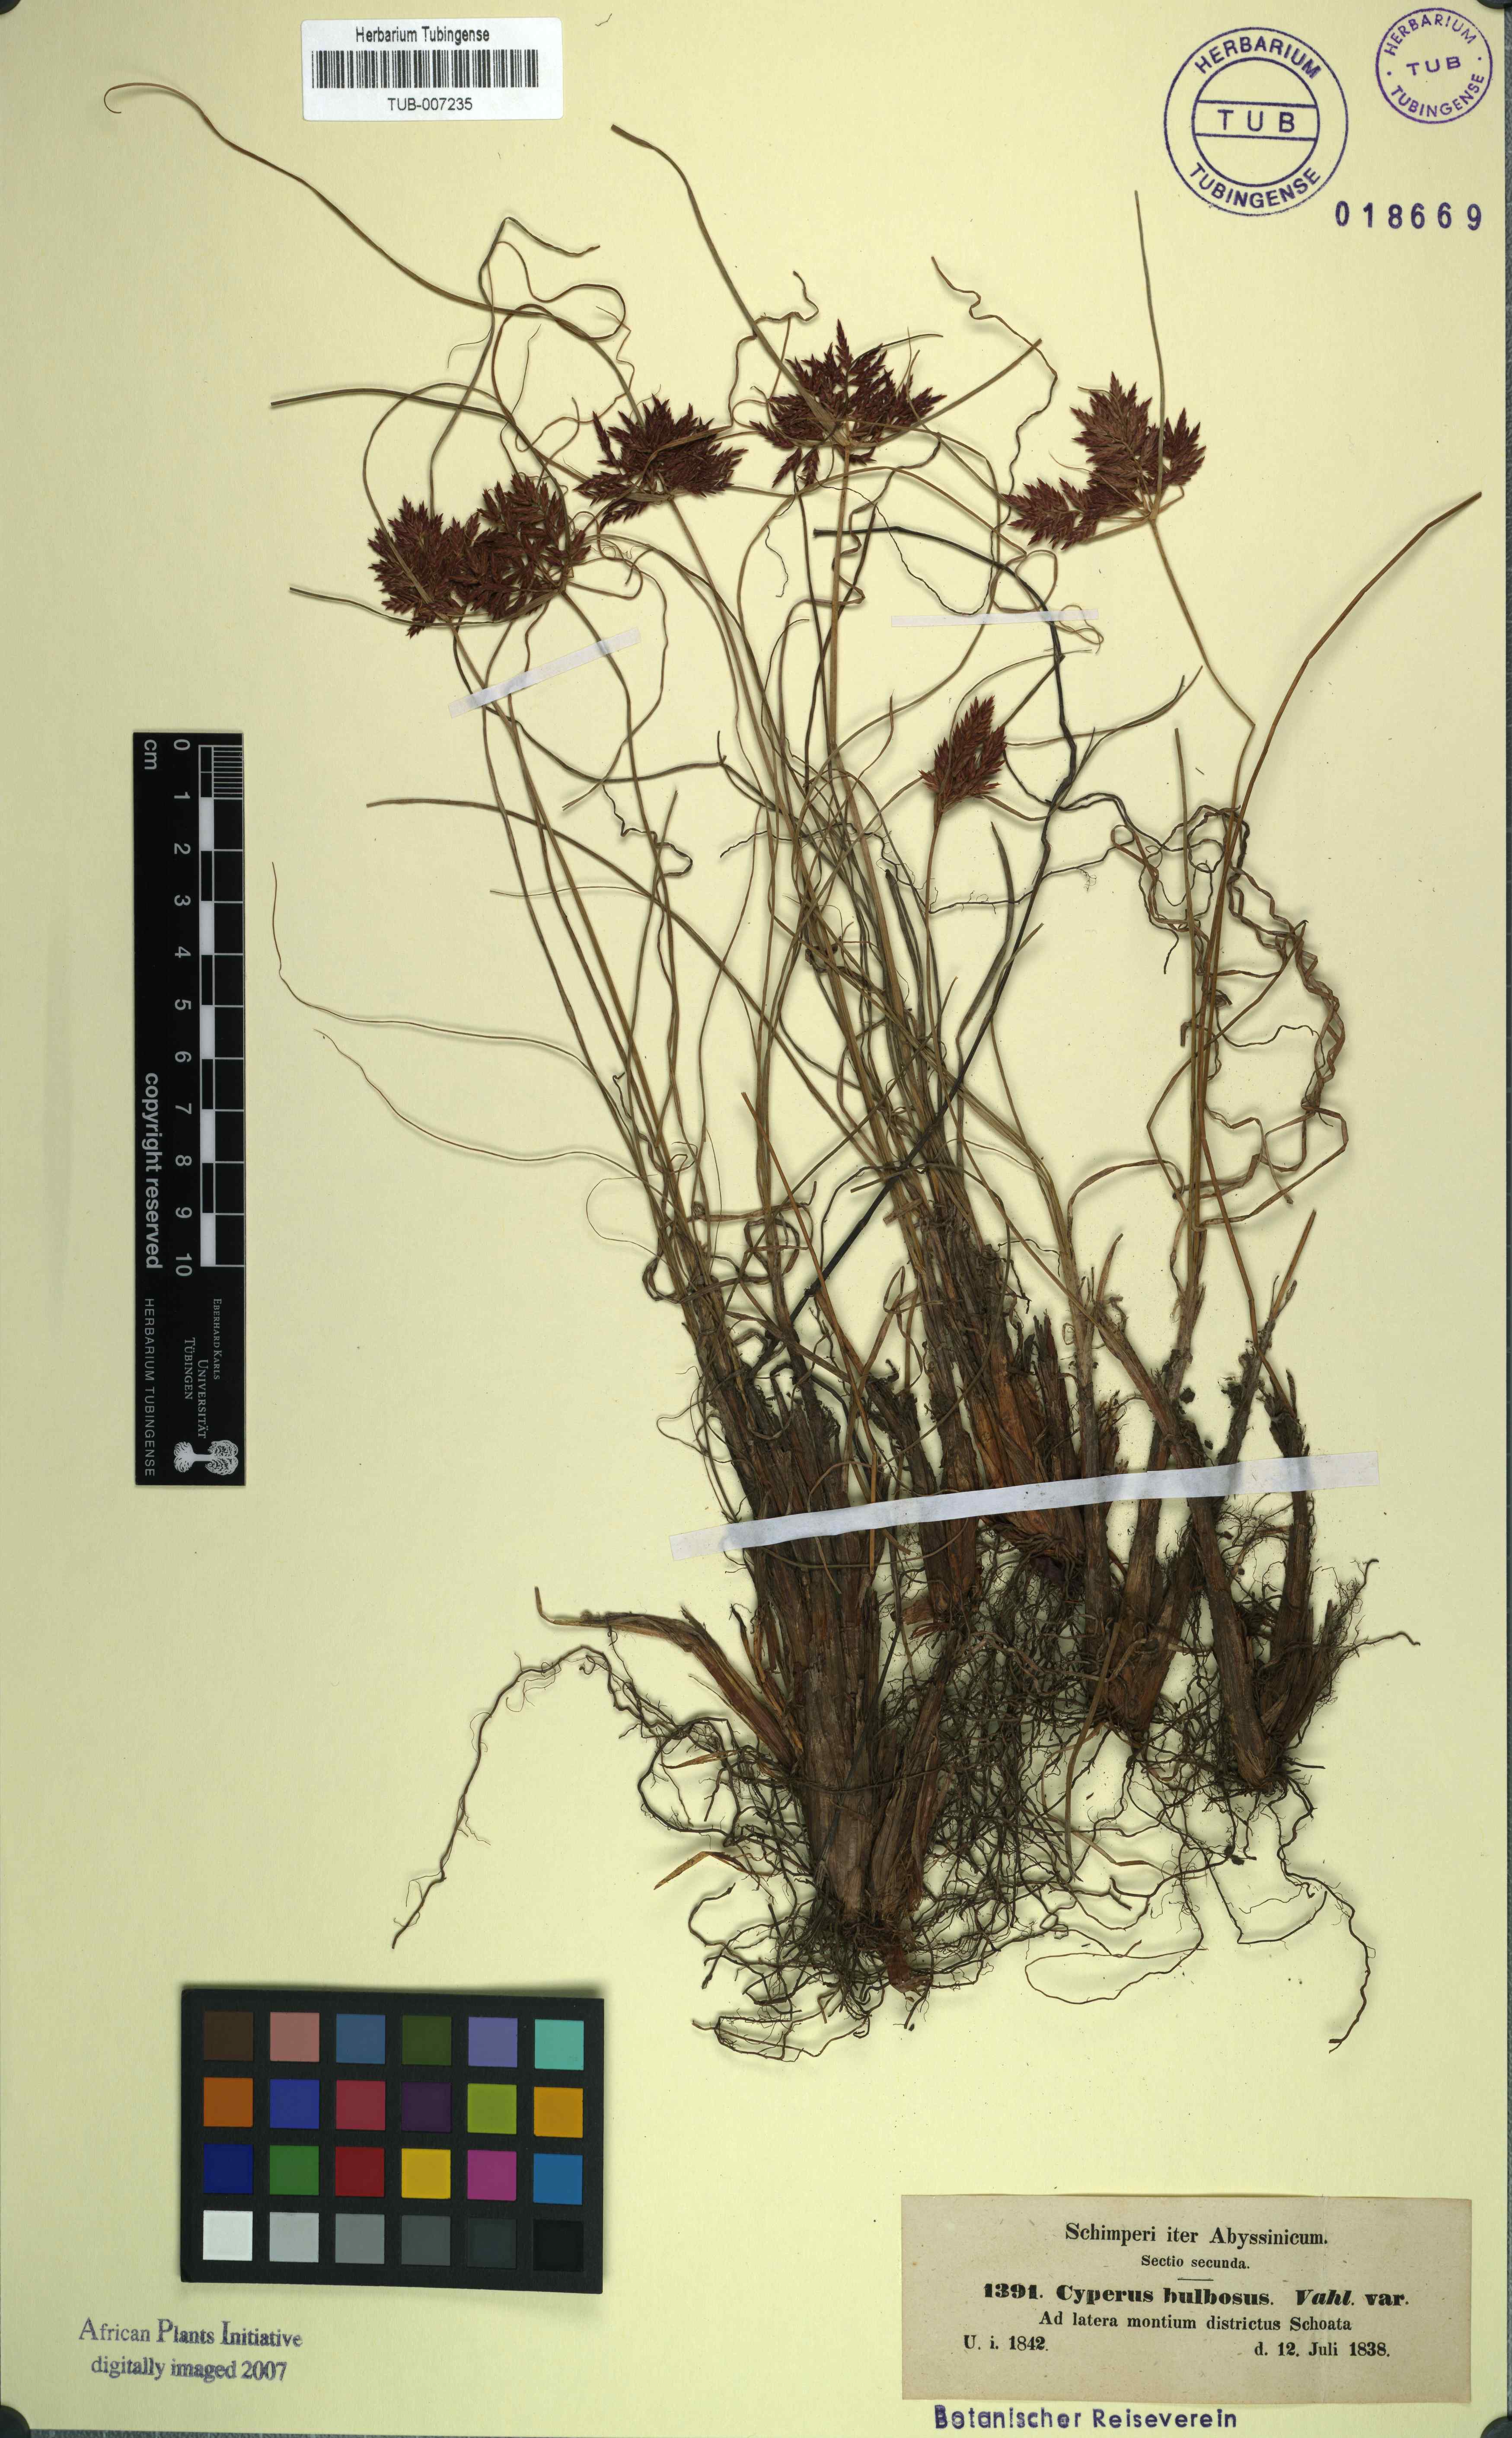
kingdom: Plantae
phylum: Tracheophyta
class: Liliopsida
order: Poales
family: Cyperaceae
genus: Cyperus
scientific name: Cyperus bulbosus
